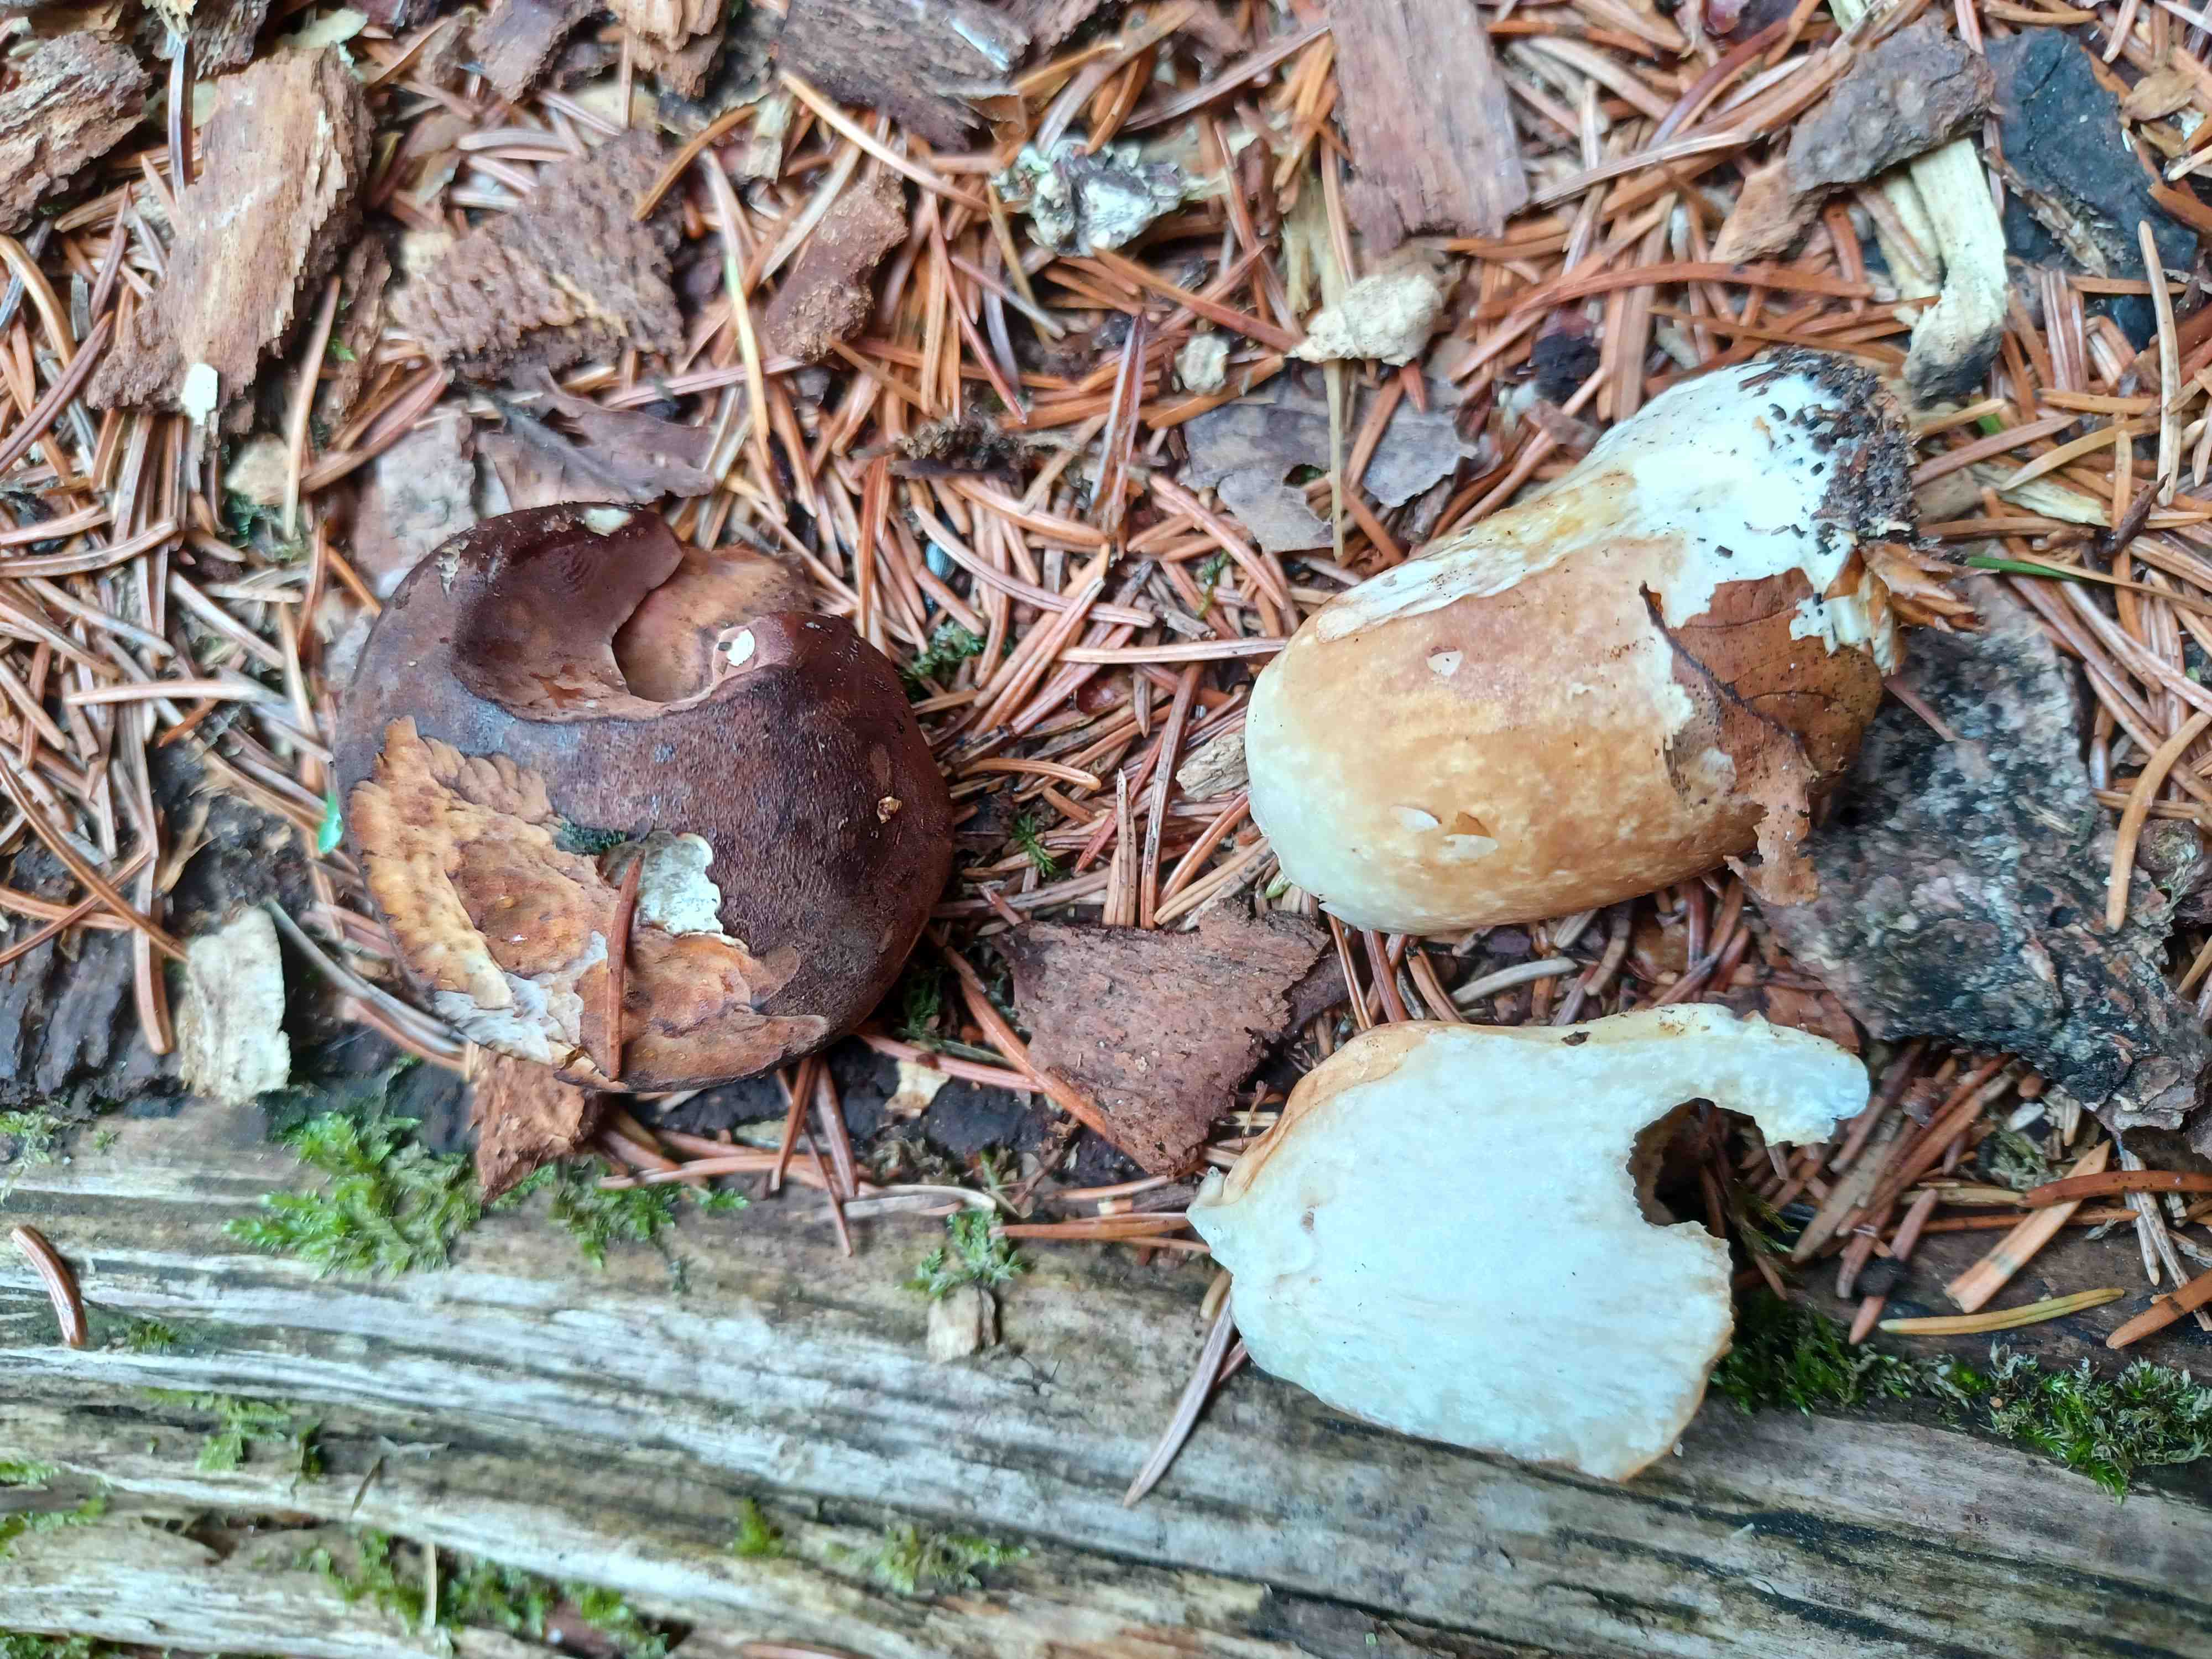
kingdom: Fungi
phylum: Basidiomycota
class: Agaricomycetes
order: Boletales
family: Boletaceae
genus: Imleria
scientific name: Imleria badia
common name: brunstokket rørhat
